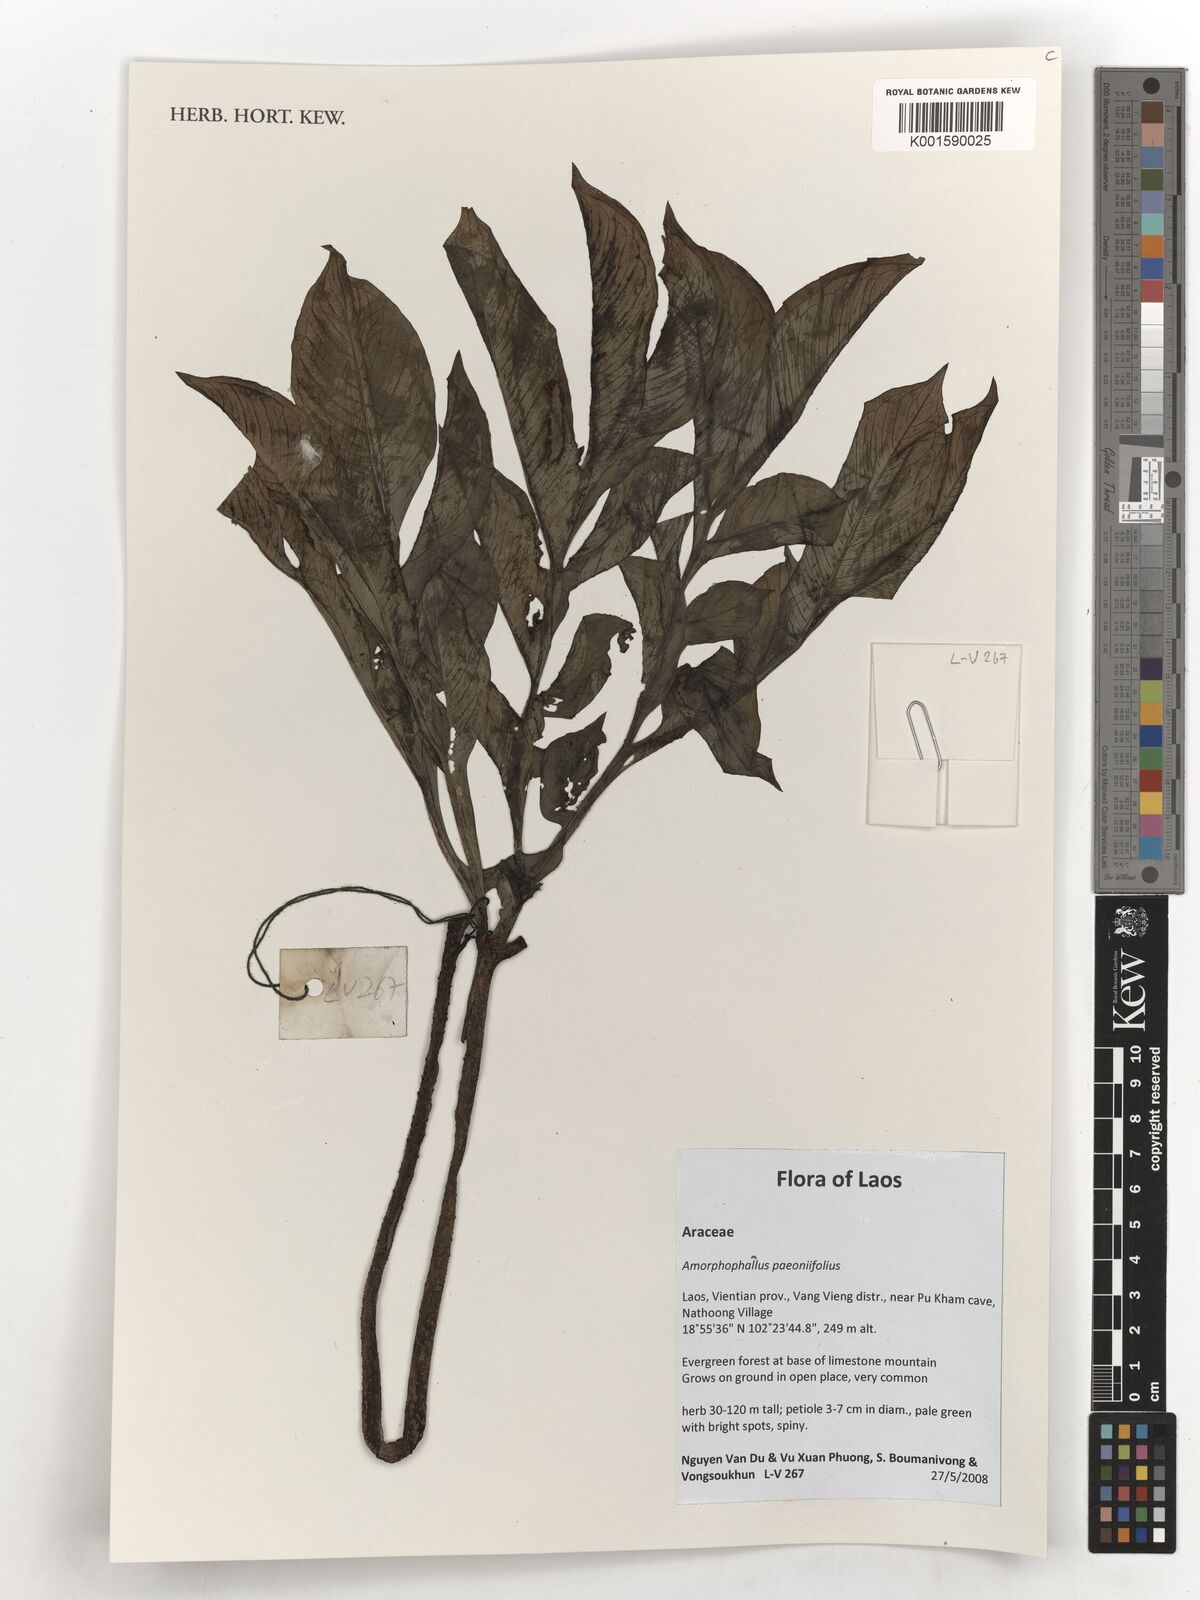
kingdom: Plantae
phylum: Tracheophyta
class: Liliopsida
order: Alismatales
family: Araceae
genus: Amorphophallus
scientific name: Amorphophallus paeoniifolius
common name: Telinga-potato
